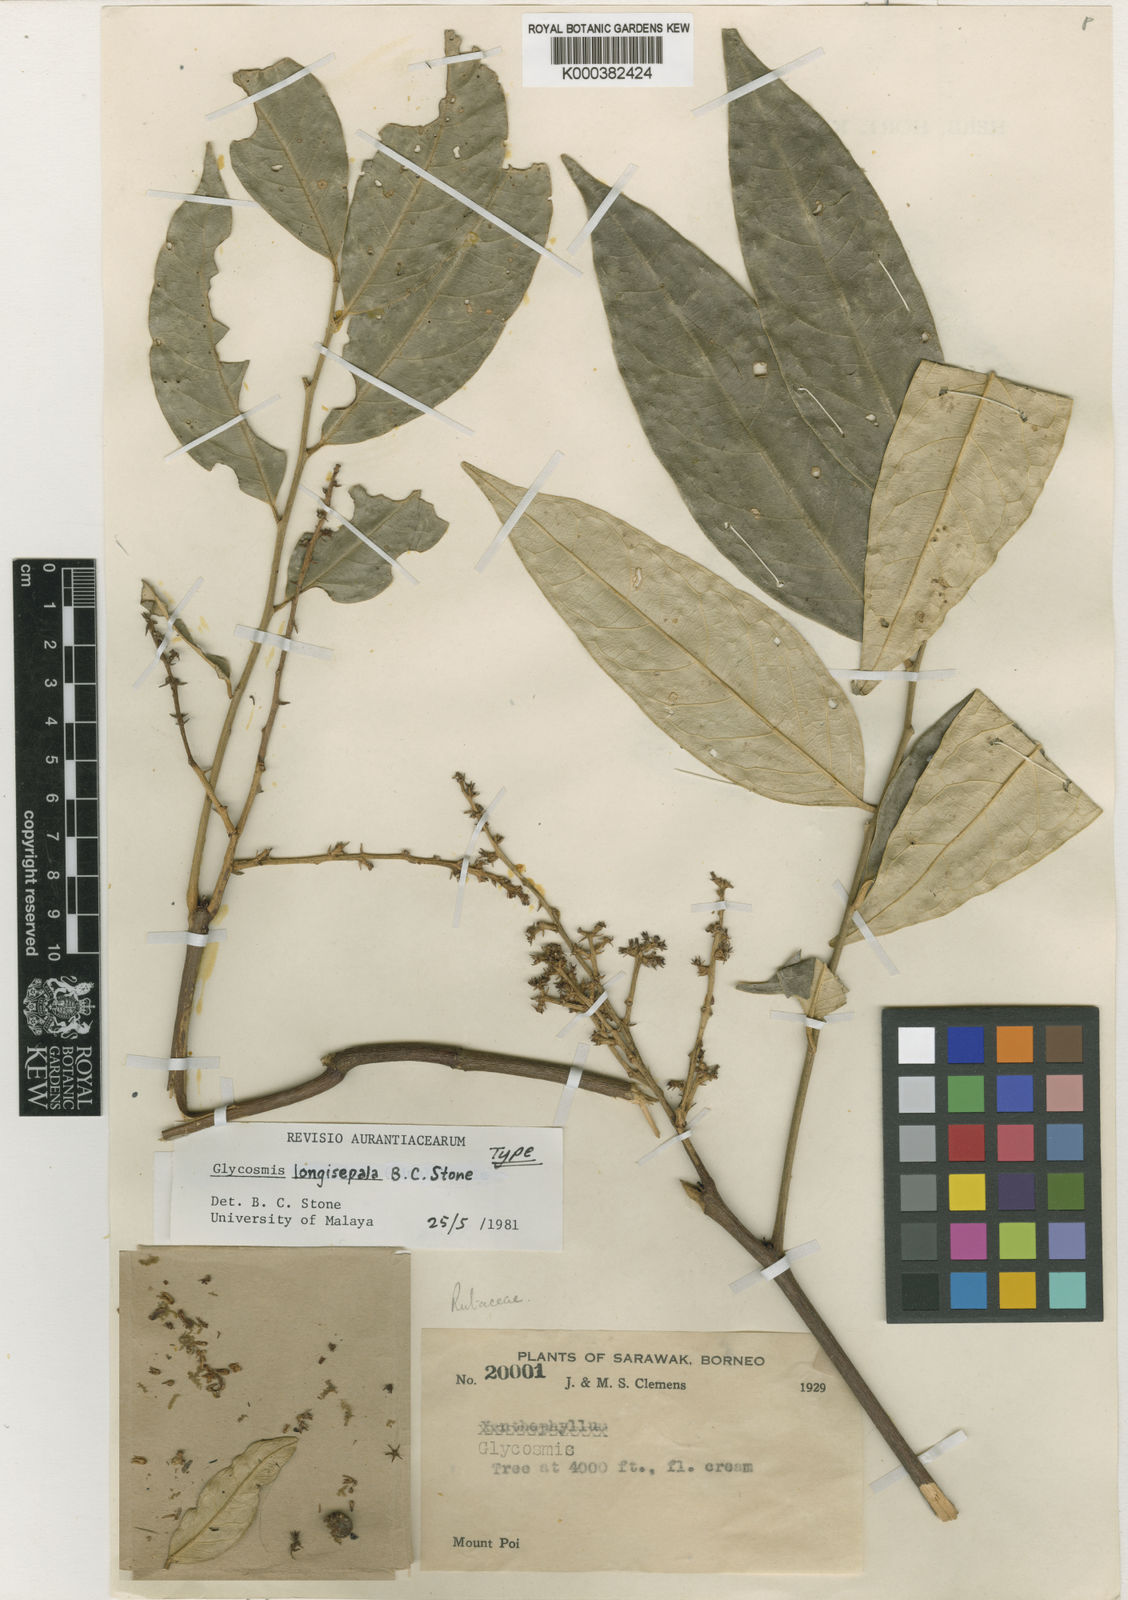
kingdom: Plantae
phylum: Tracheophyta
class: Magnoliopsida
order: Sapindales
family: Rutaceae
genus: Glycosmis
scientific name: Glycosmis longisepala
